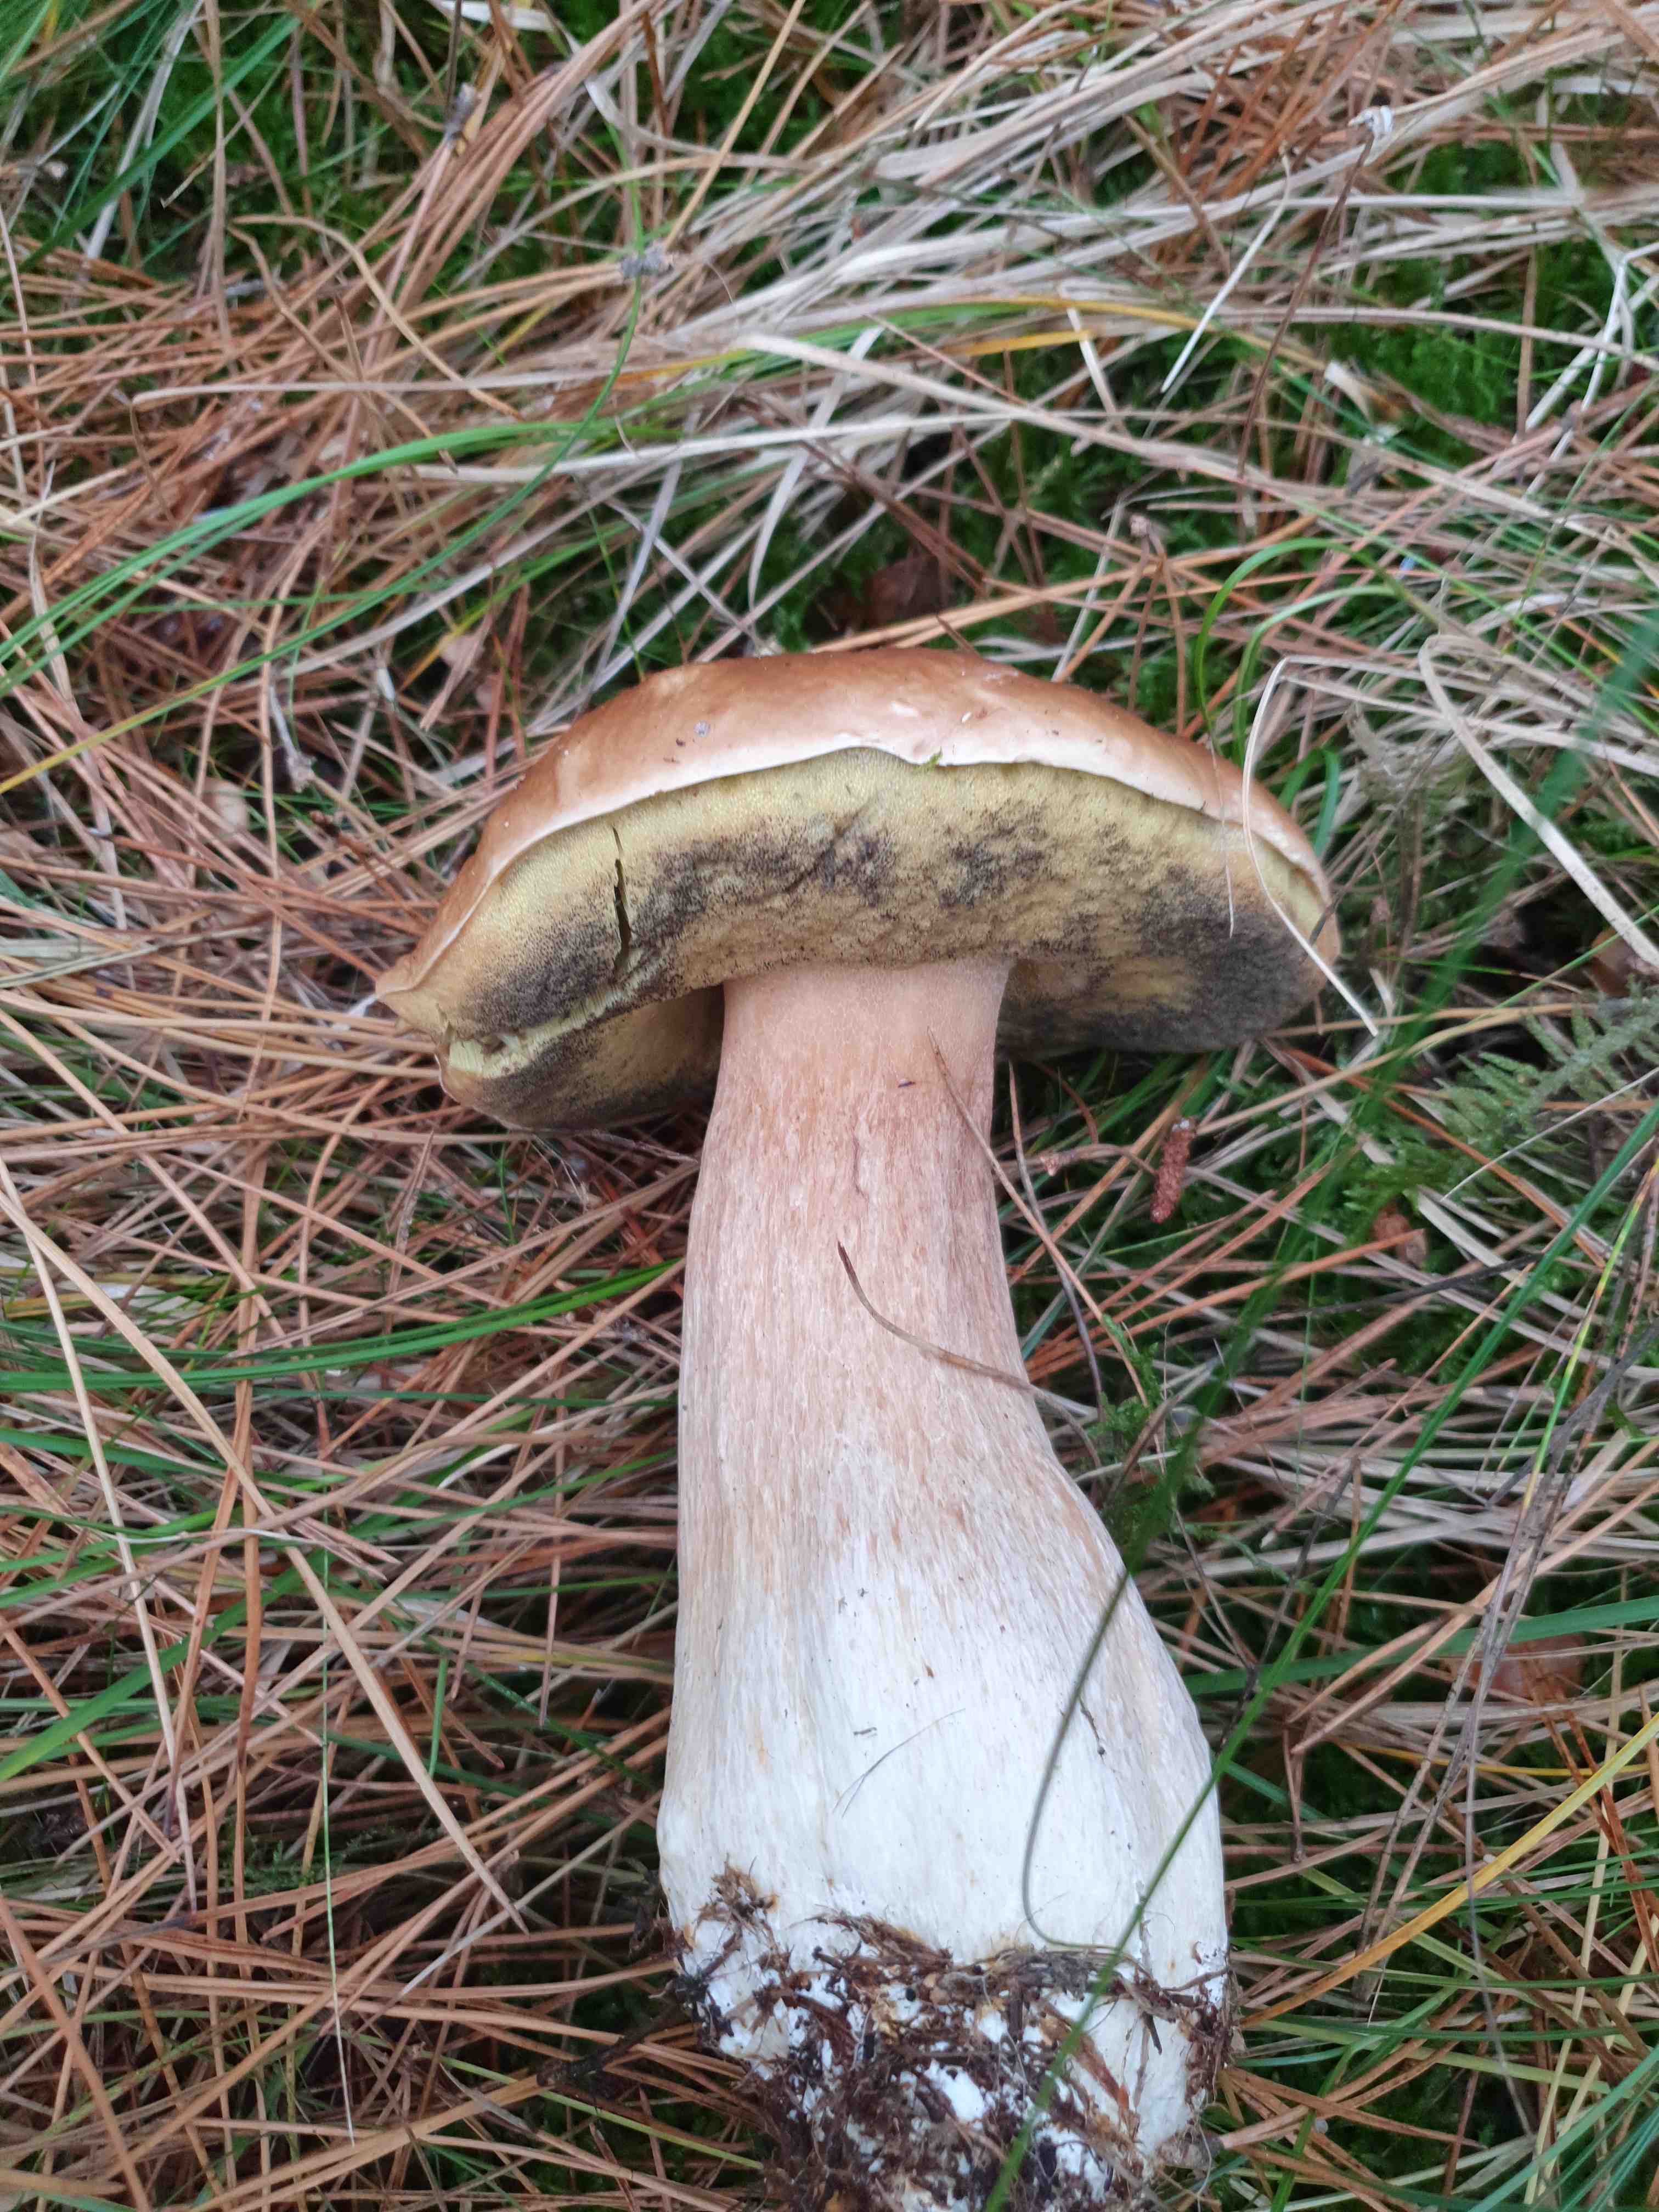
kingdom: Fungi
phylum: Basidiomycota
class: Agaricomycetes
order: Boletales
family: Boletaceae
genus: Boletus
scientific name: Boletus edulis
